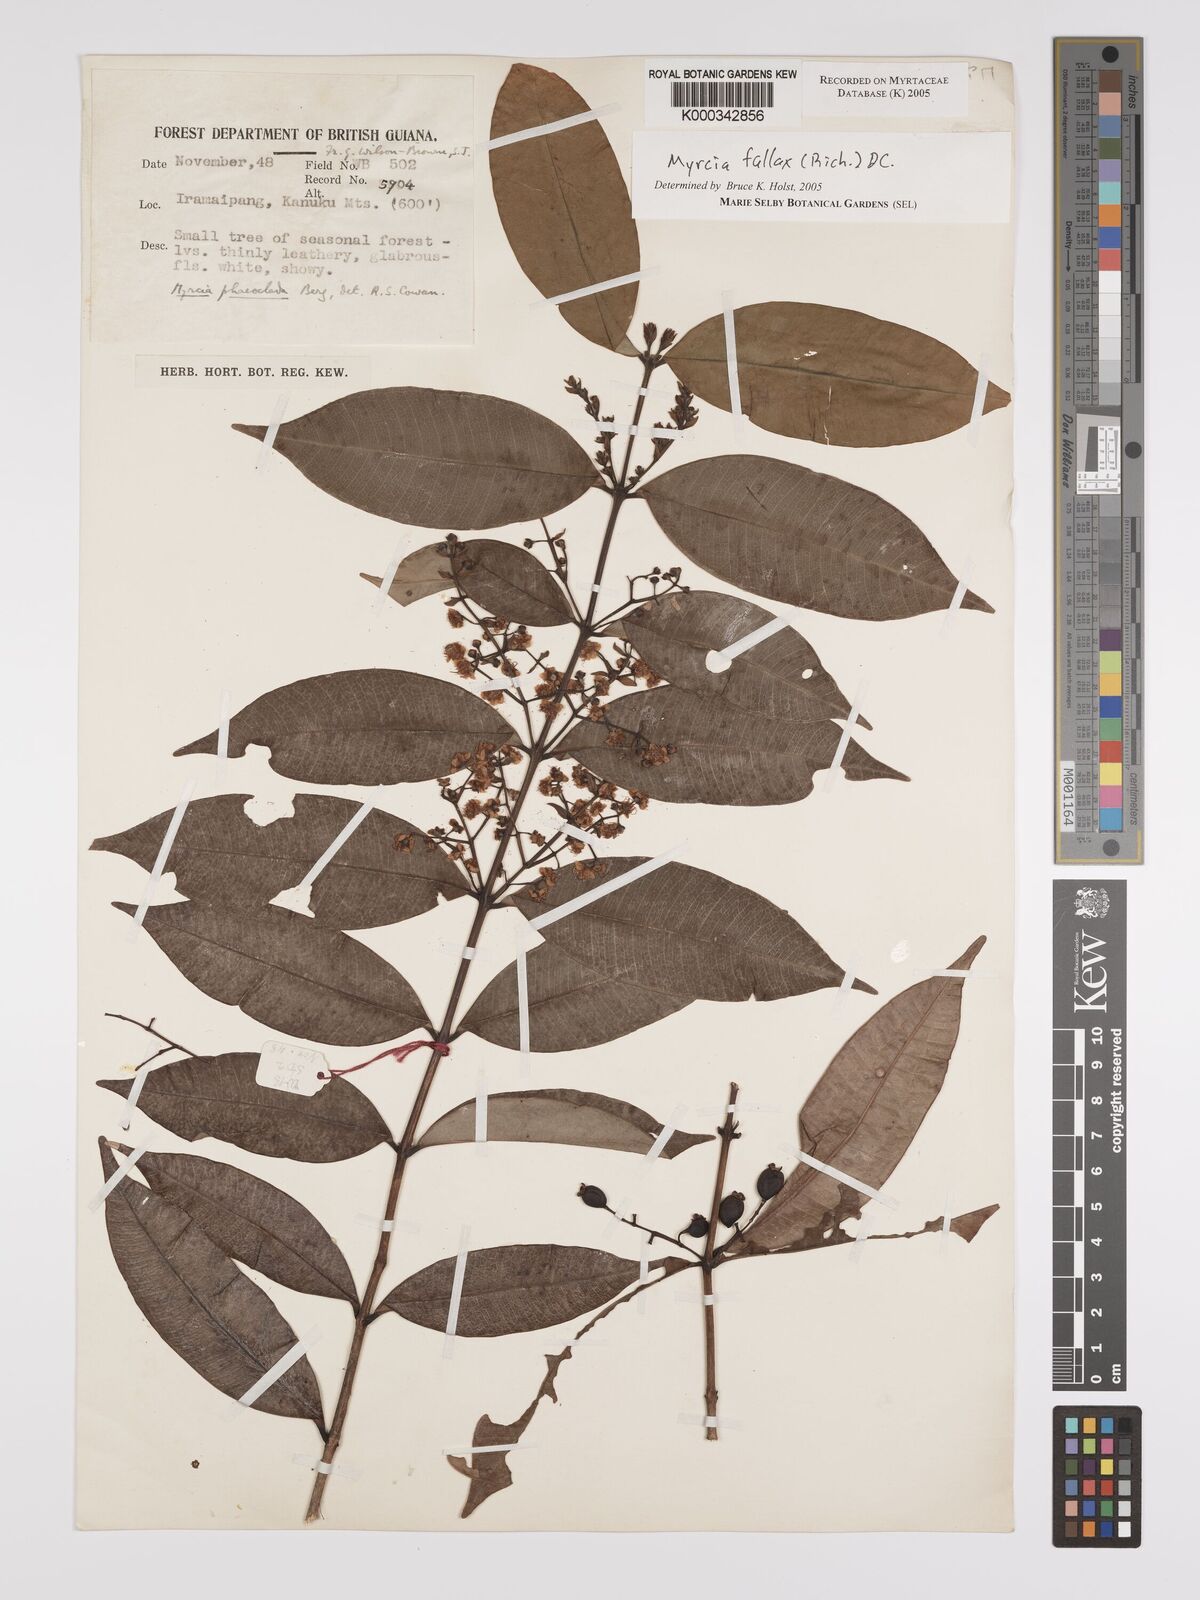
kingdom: Plantae
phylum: Tracheophyta
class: Magnoliopsida
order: Myrtales
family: Myrtaceae
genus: Myrcia
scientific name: Myrcia splendens
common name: Surinam cherry
